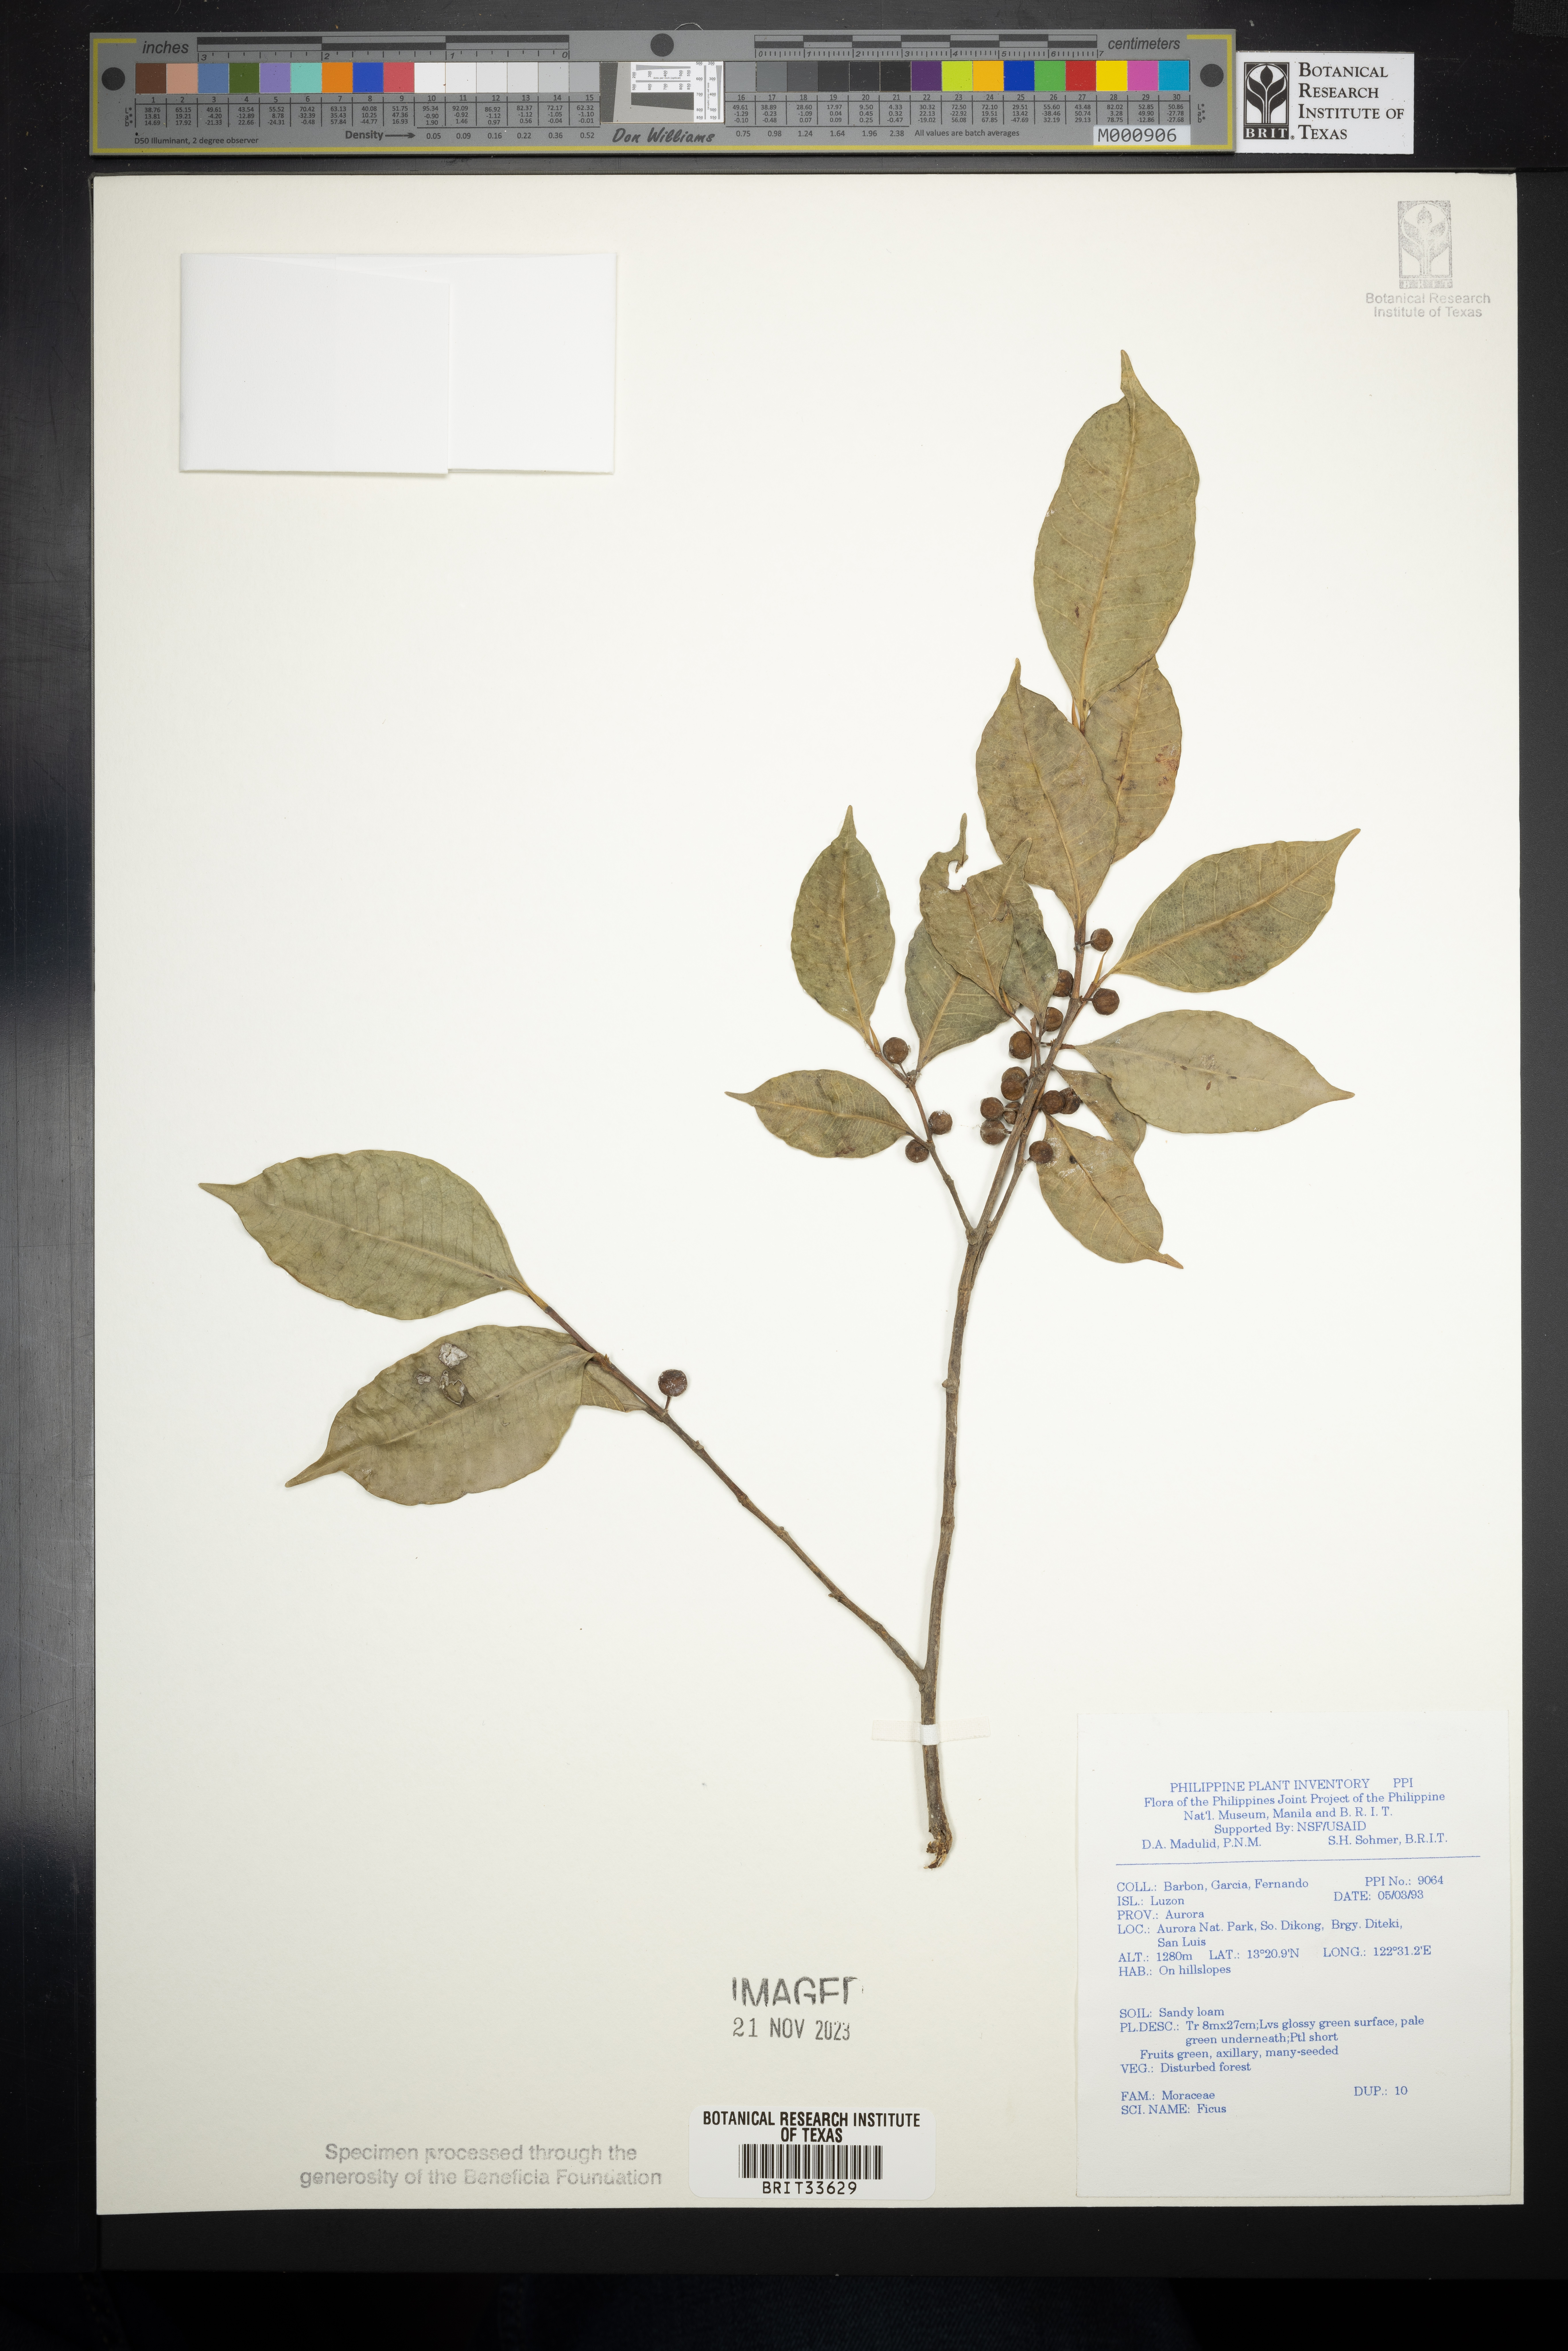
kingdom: Plantae
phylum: Tracheophyta
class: Magnoliopsida
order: Rosales
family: Moraceae
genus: Ficus
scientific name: Ficus
